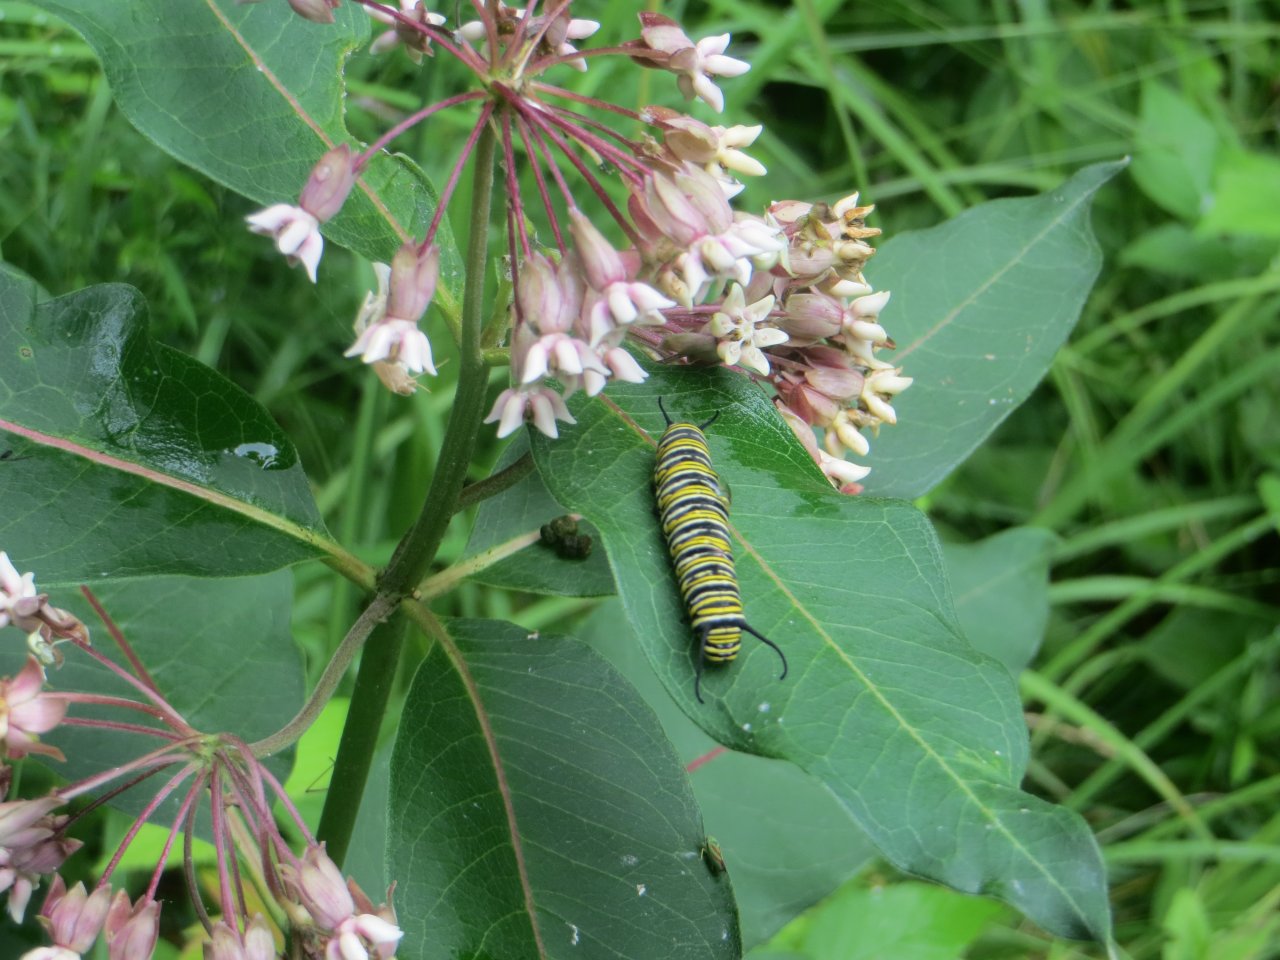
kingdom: Animalia
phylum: Arthropoda
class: Insecta
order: Lepidoptera
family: Nymphalidae
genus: Danaus
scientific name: Danaus plexippus
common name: Monarch
